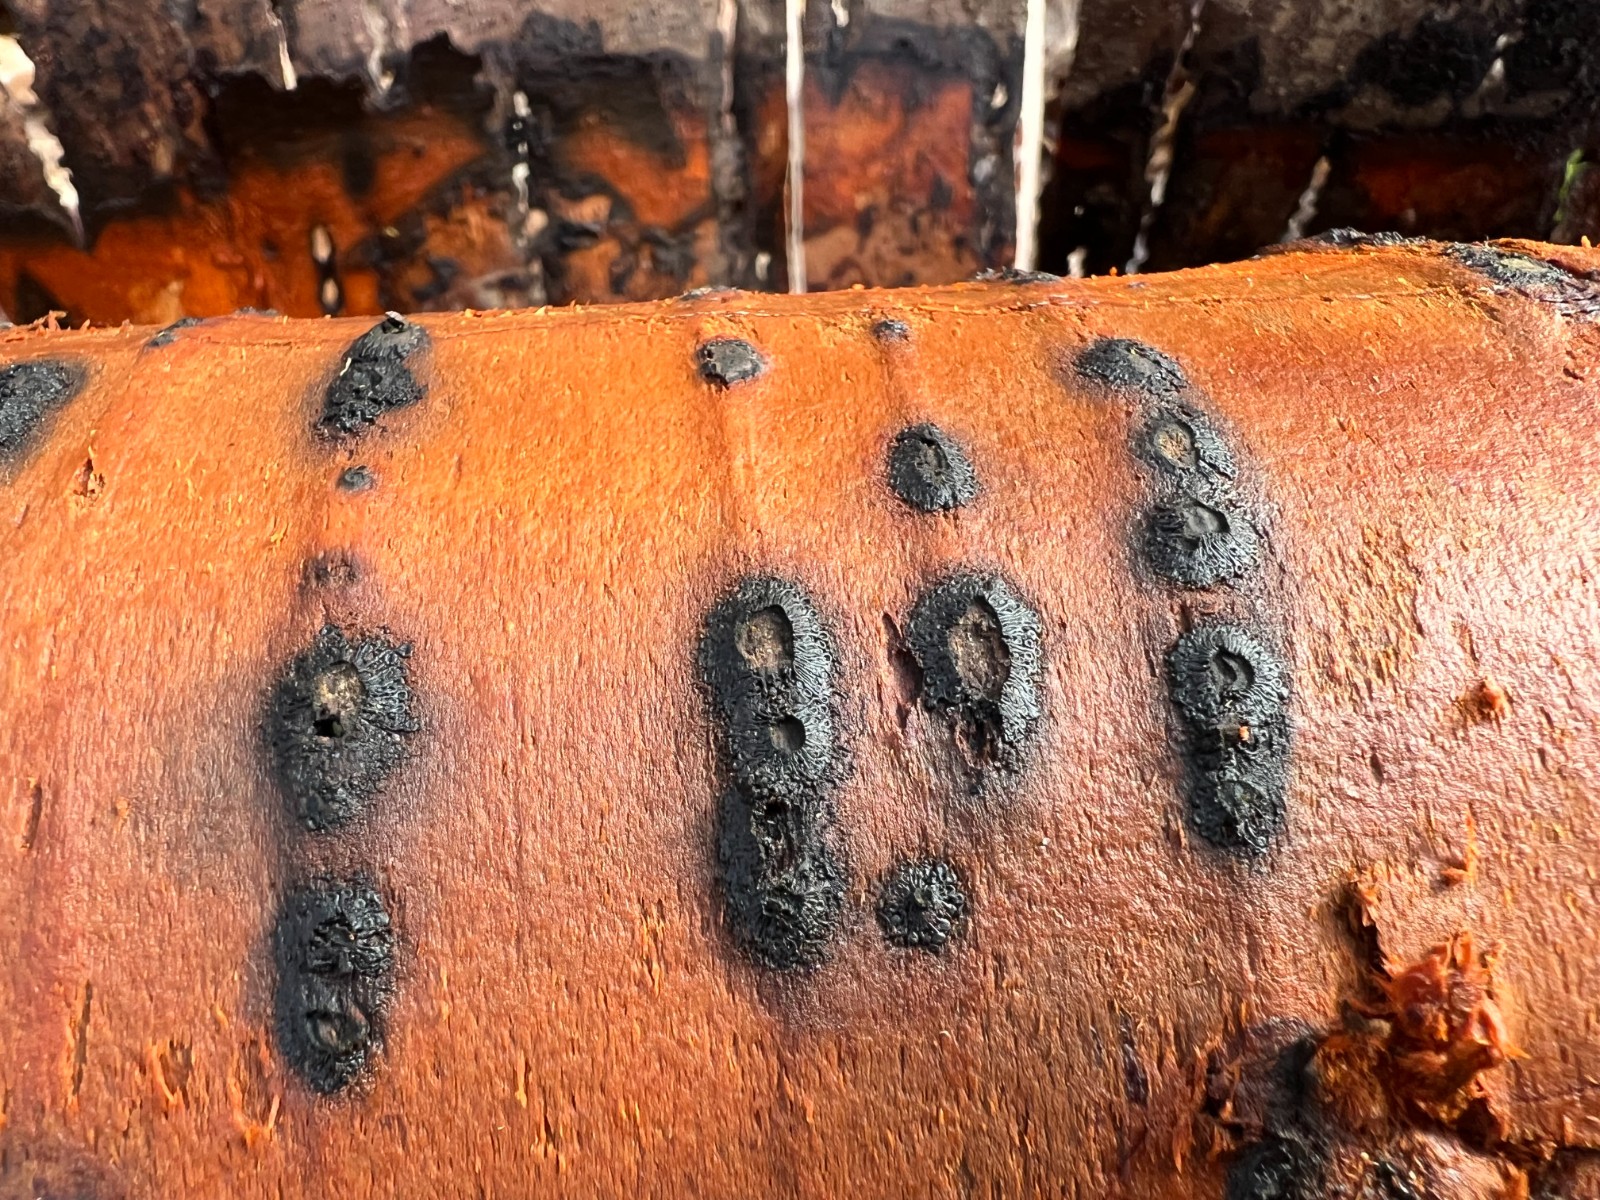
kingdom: Fungi
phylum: Ascomycota
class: Sordariomycetes
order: Calosphaeriales
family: Calosphaeriaceae
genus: Calosphaeria
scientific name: Calosphaeria pulchella
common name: smuk slyngkerne
